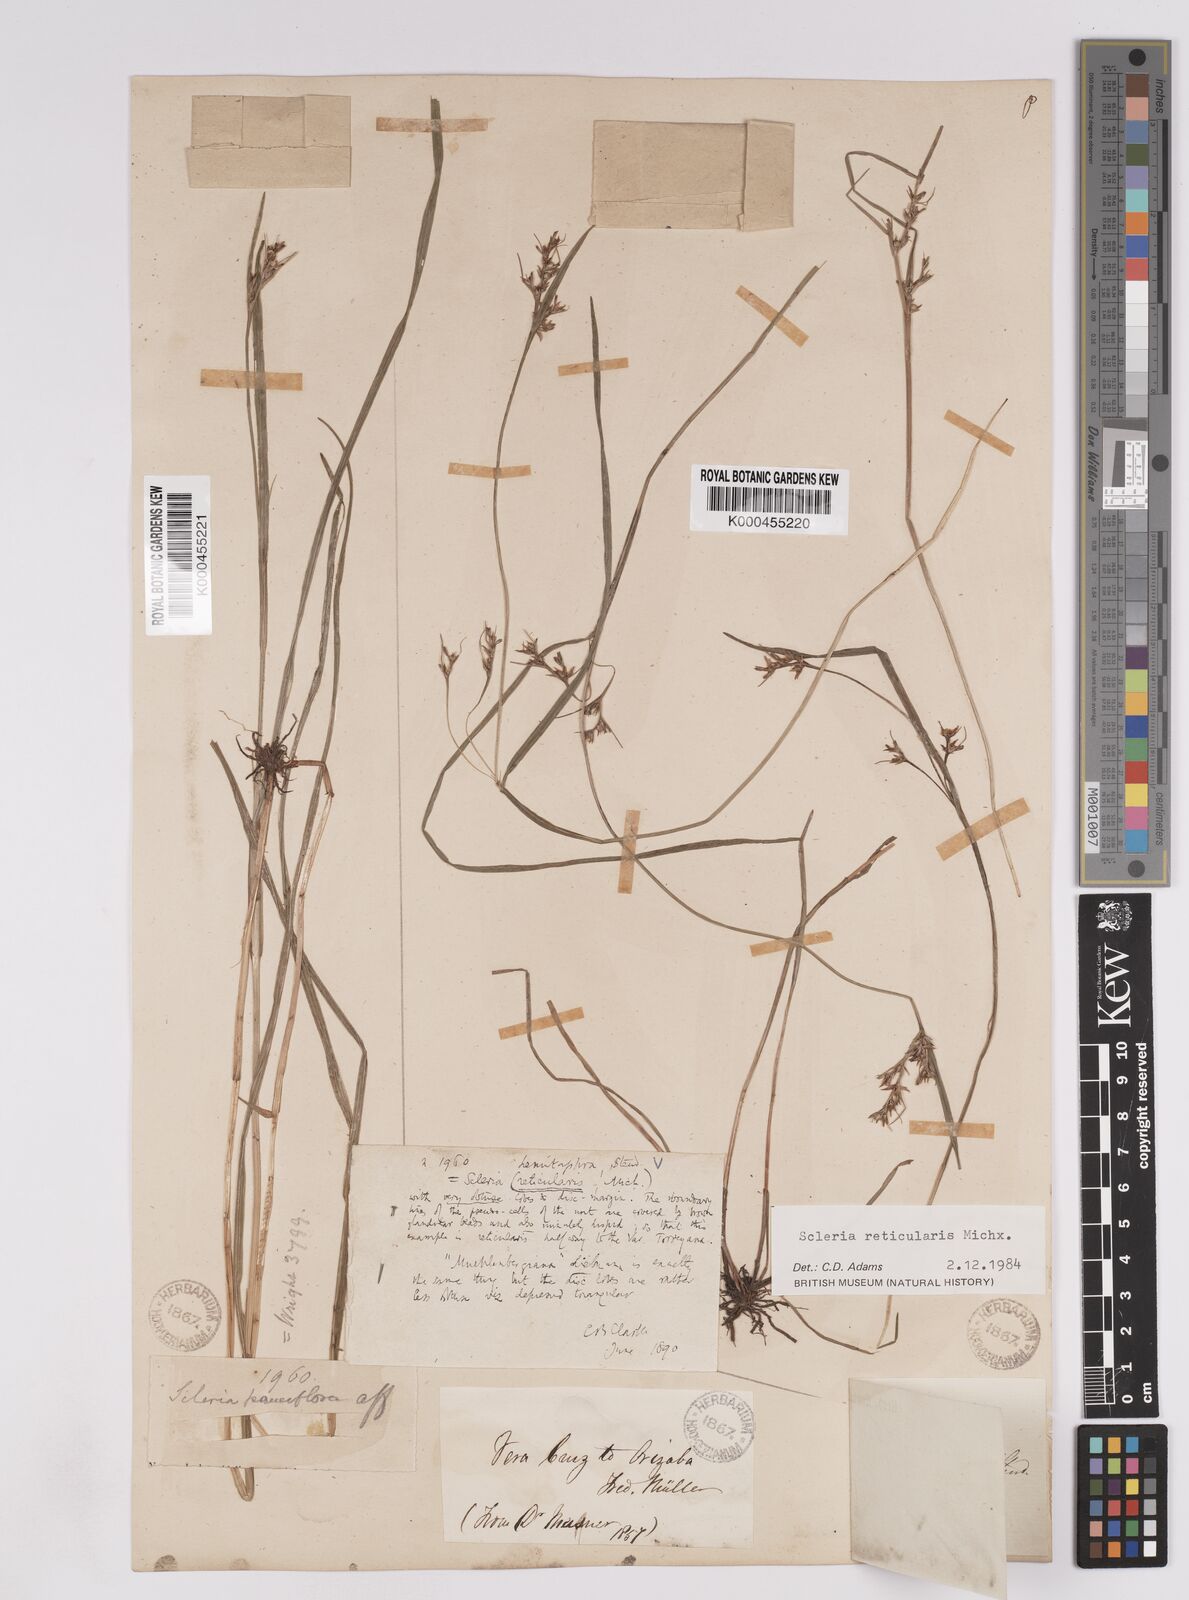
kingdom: Plantae
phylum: Tracheophyta
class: Liliopsida
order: Poales
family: Cyperaceae
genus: Scleria
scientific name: Scleria
